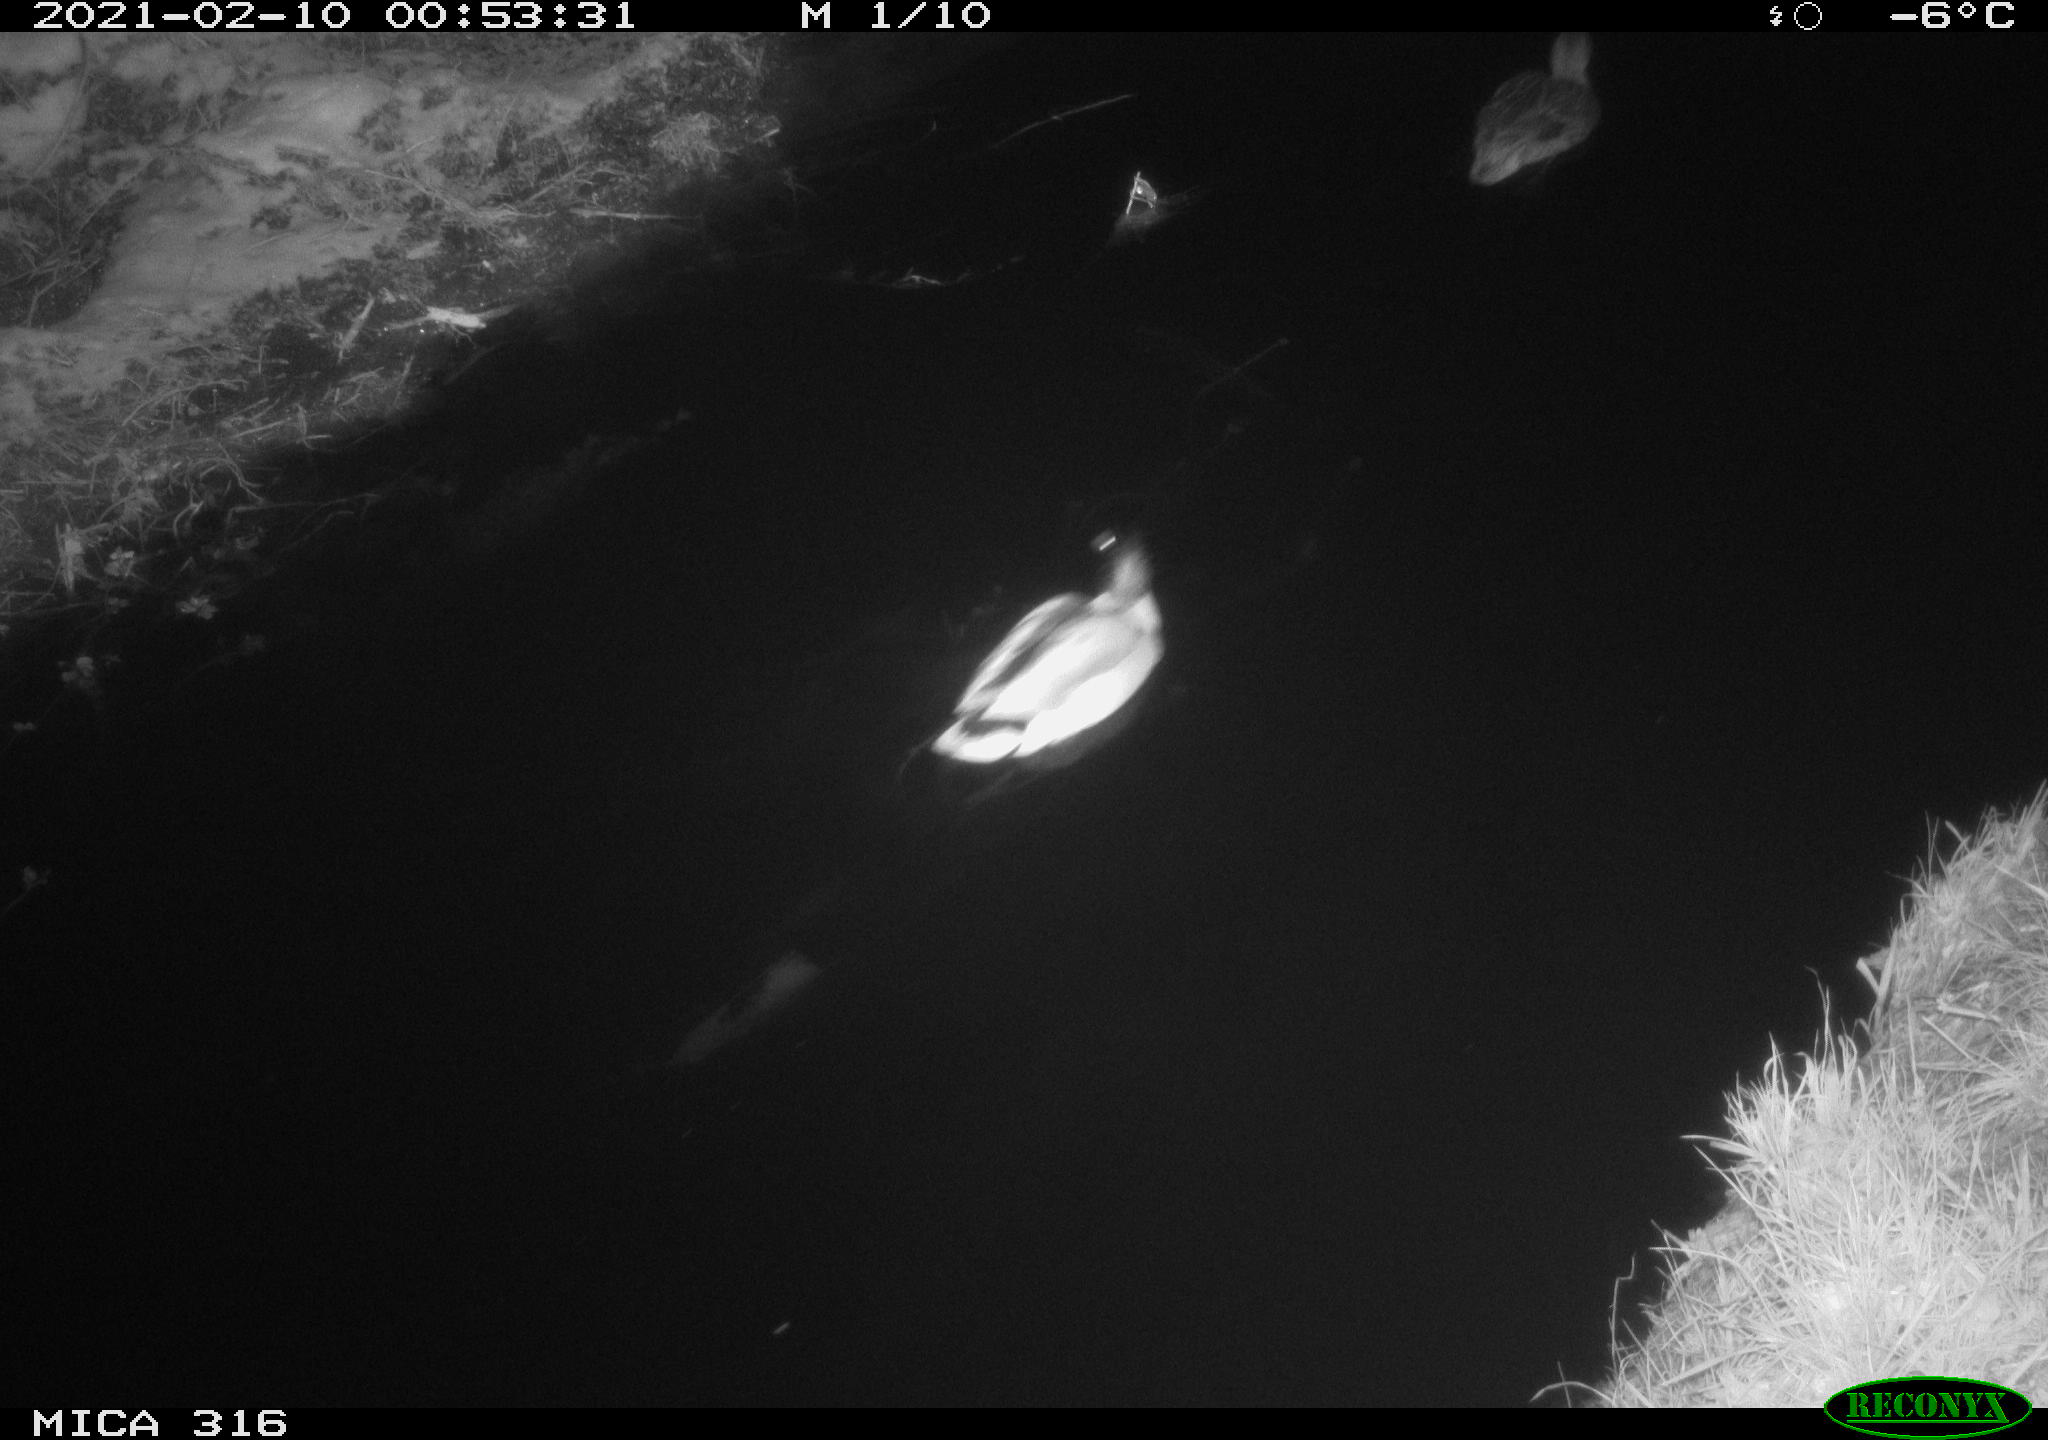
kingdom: Animalia
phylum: Chordata
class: Aves
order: Anseriformes
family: Anatidae
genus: Anas
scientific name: Anas platyrhynchos
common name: Mallard
